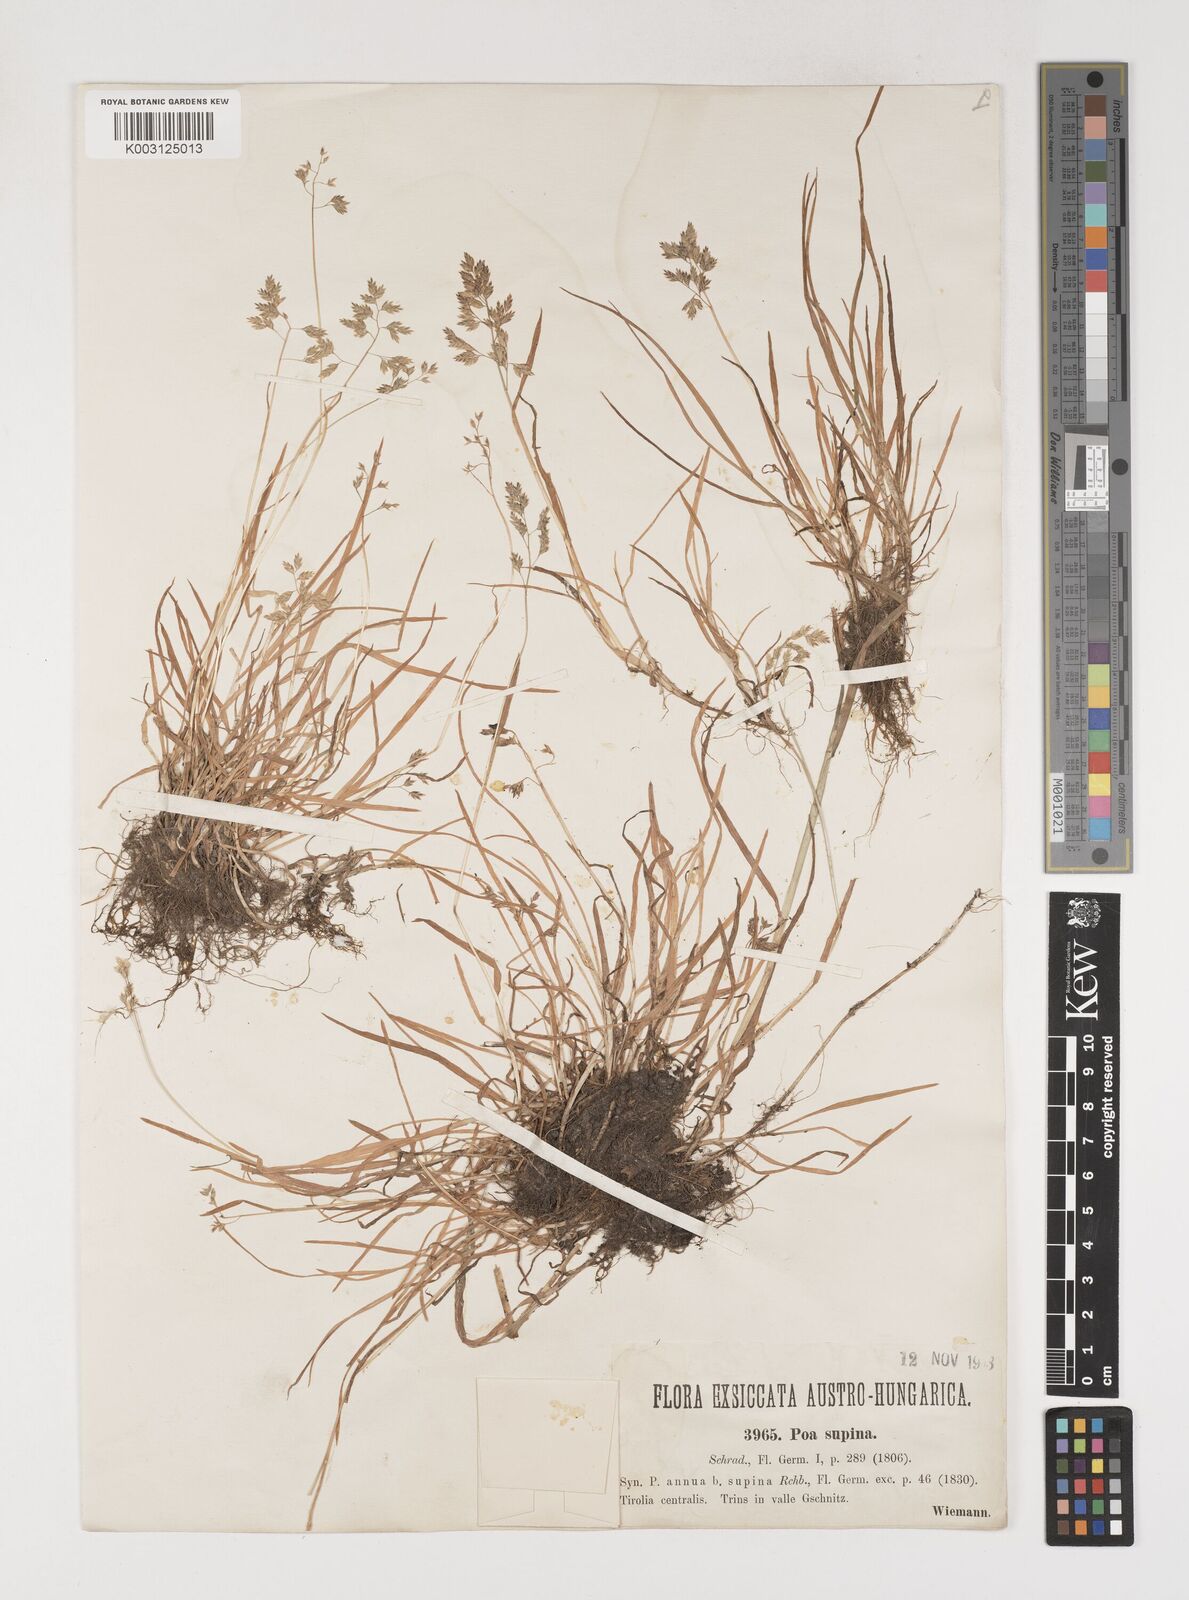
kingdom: Plantae
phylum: Tracheophyta
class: Liliopsida
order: Poales
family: Poaceae
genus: Poa
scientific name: Poa supina
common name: Supina bluegrass
